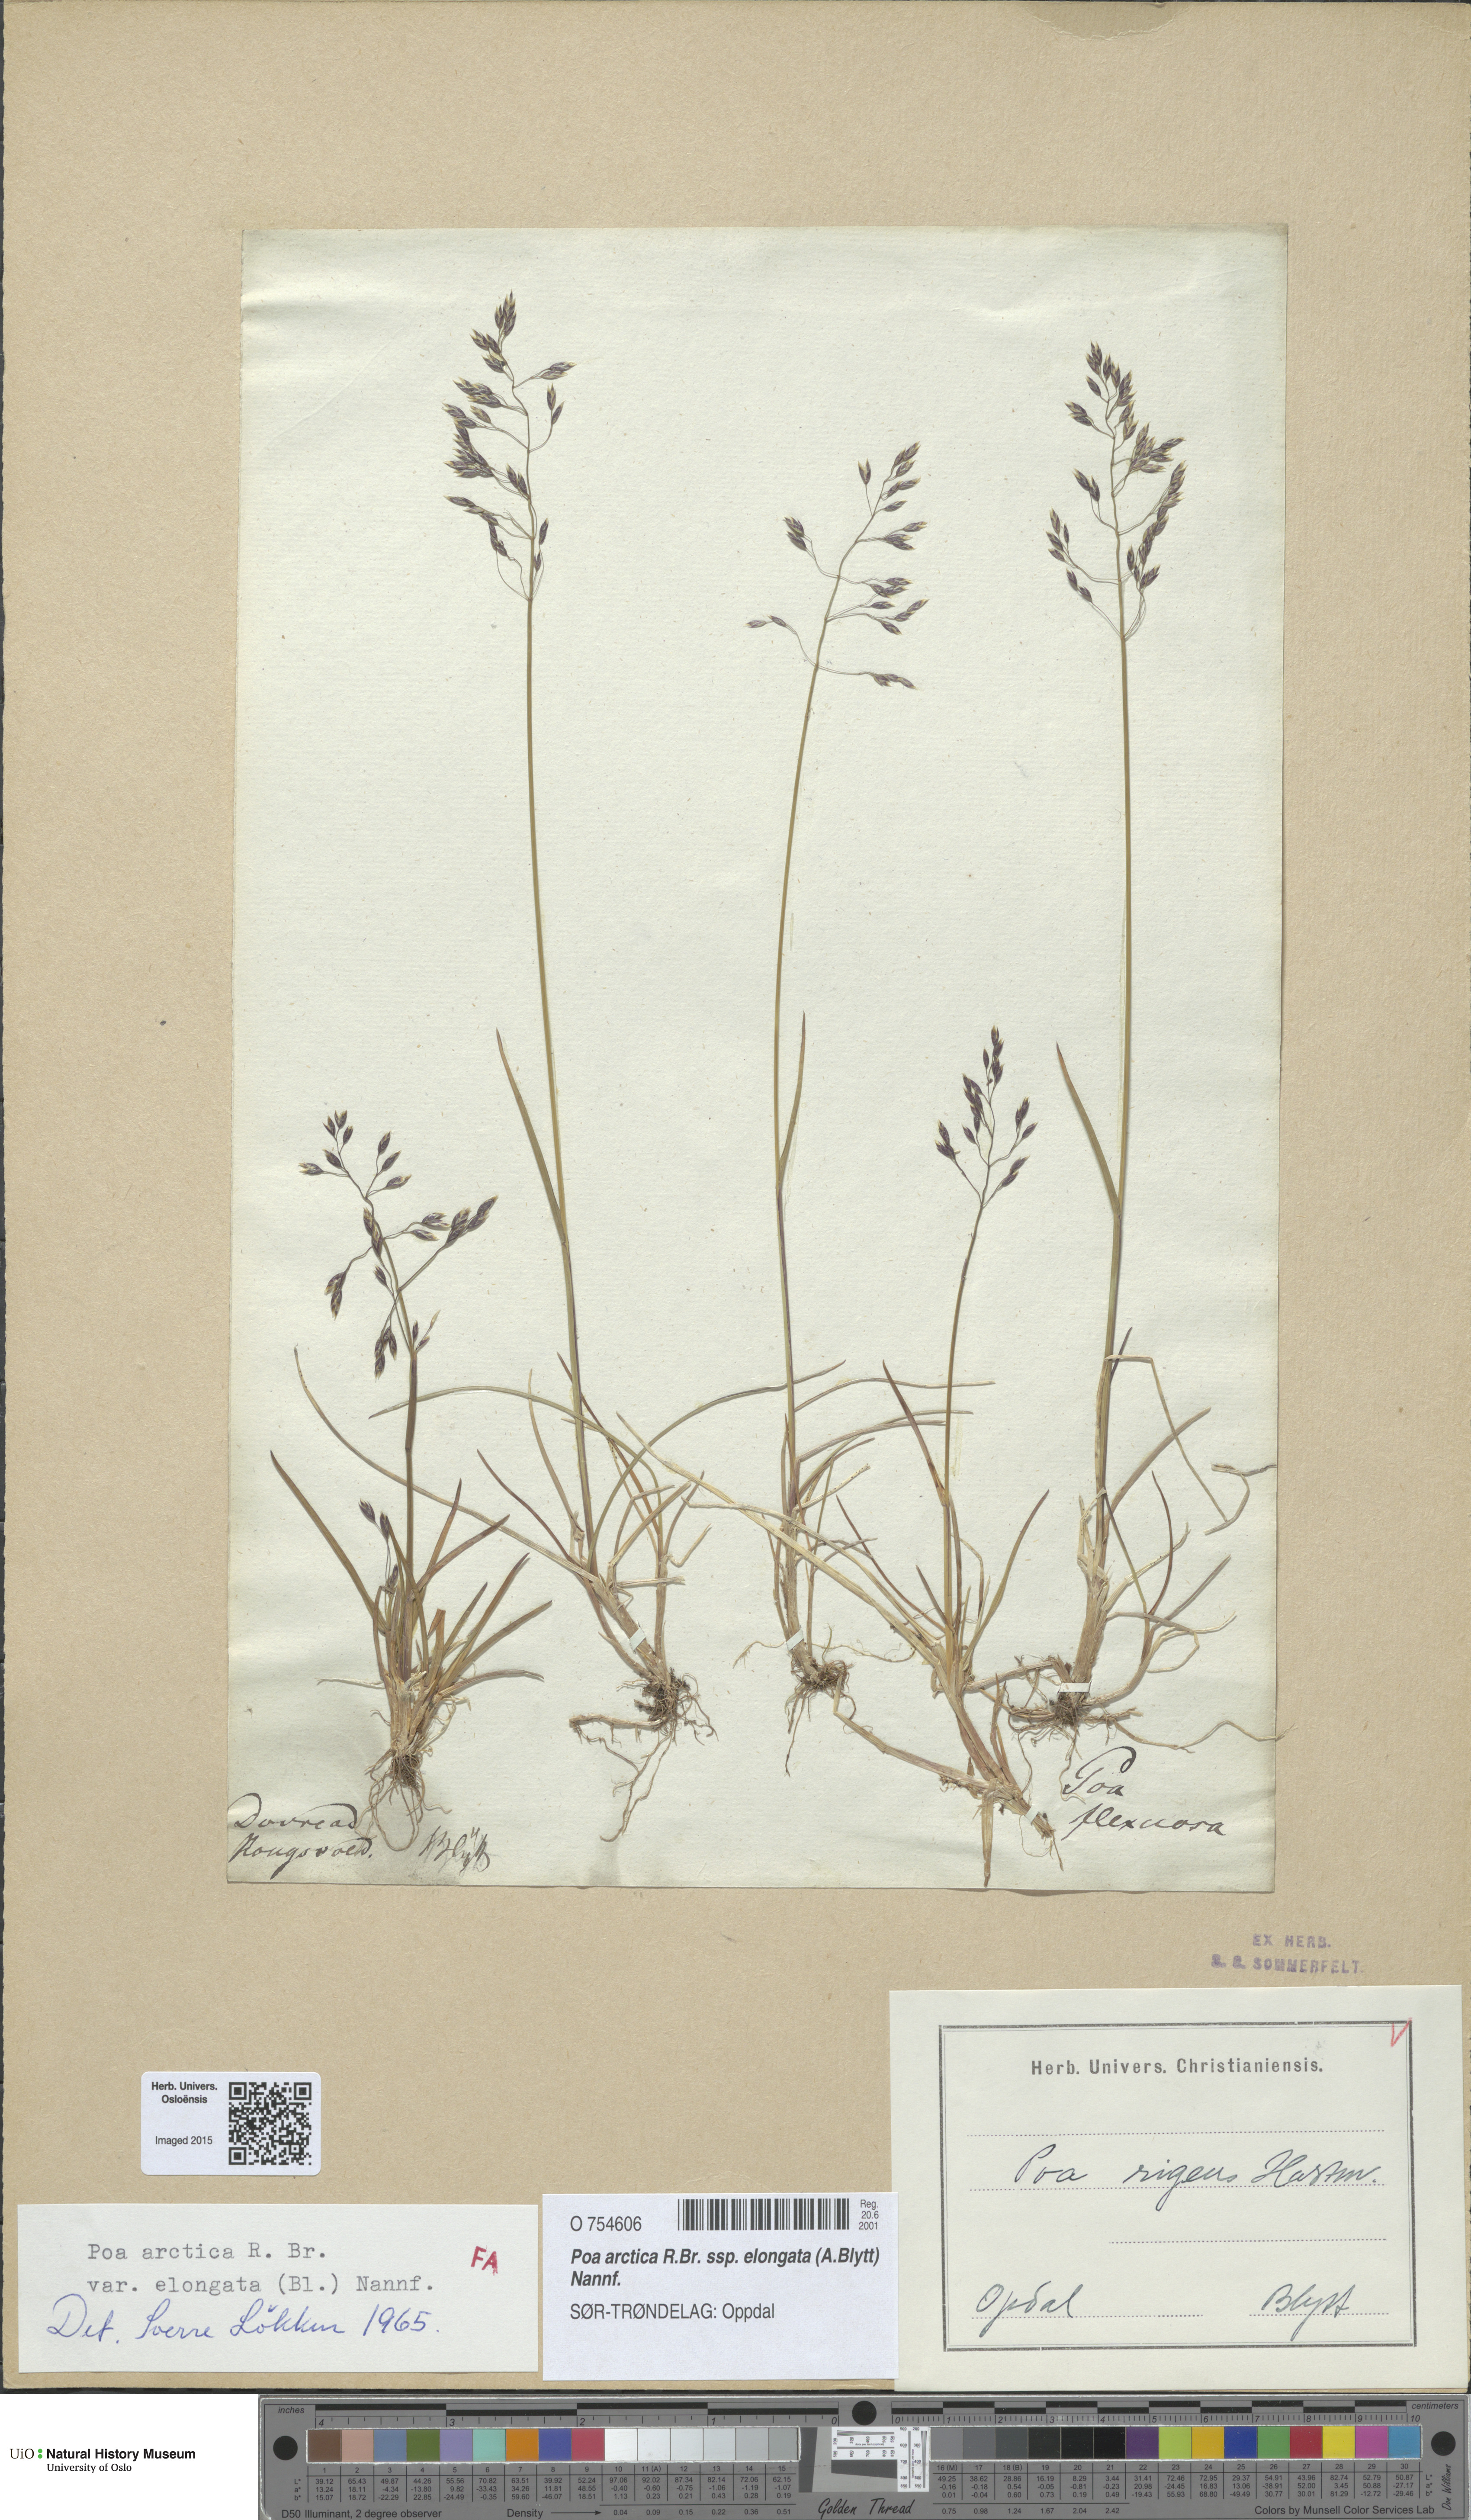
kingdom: Plantae
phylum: Tracheophyta
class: Liliopsida
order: Poales
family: Poaceae
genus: Poa
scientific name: Poa arctica
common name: Arctic bluegrass
